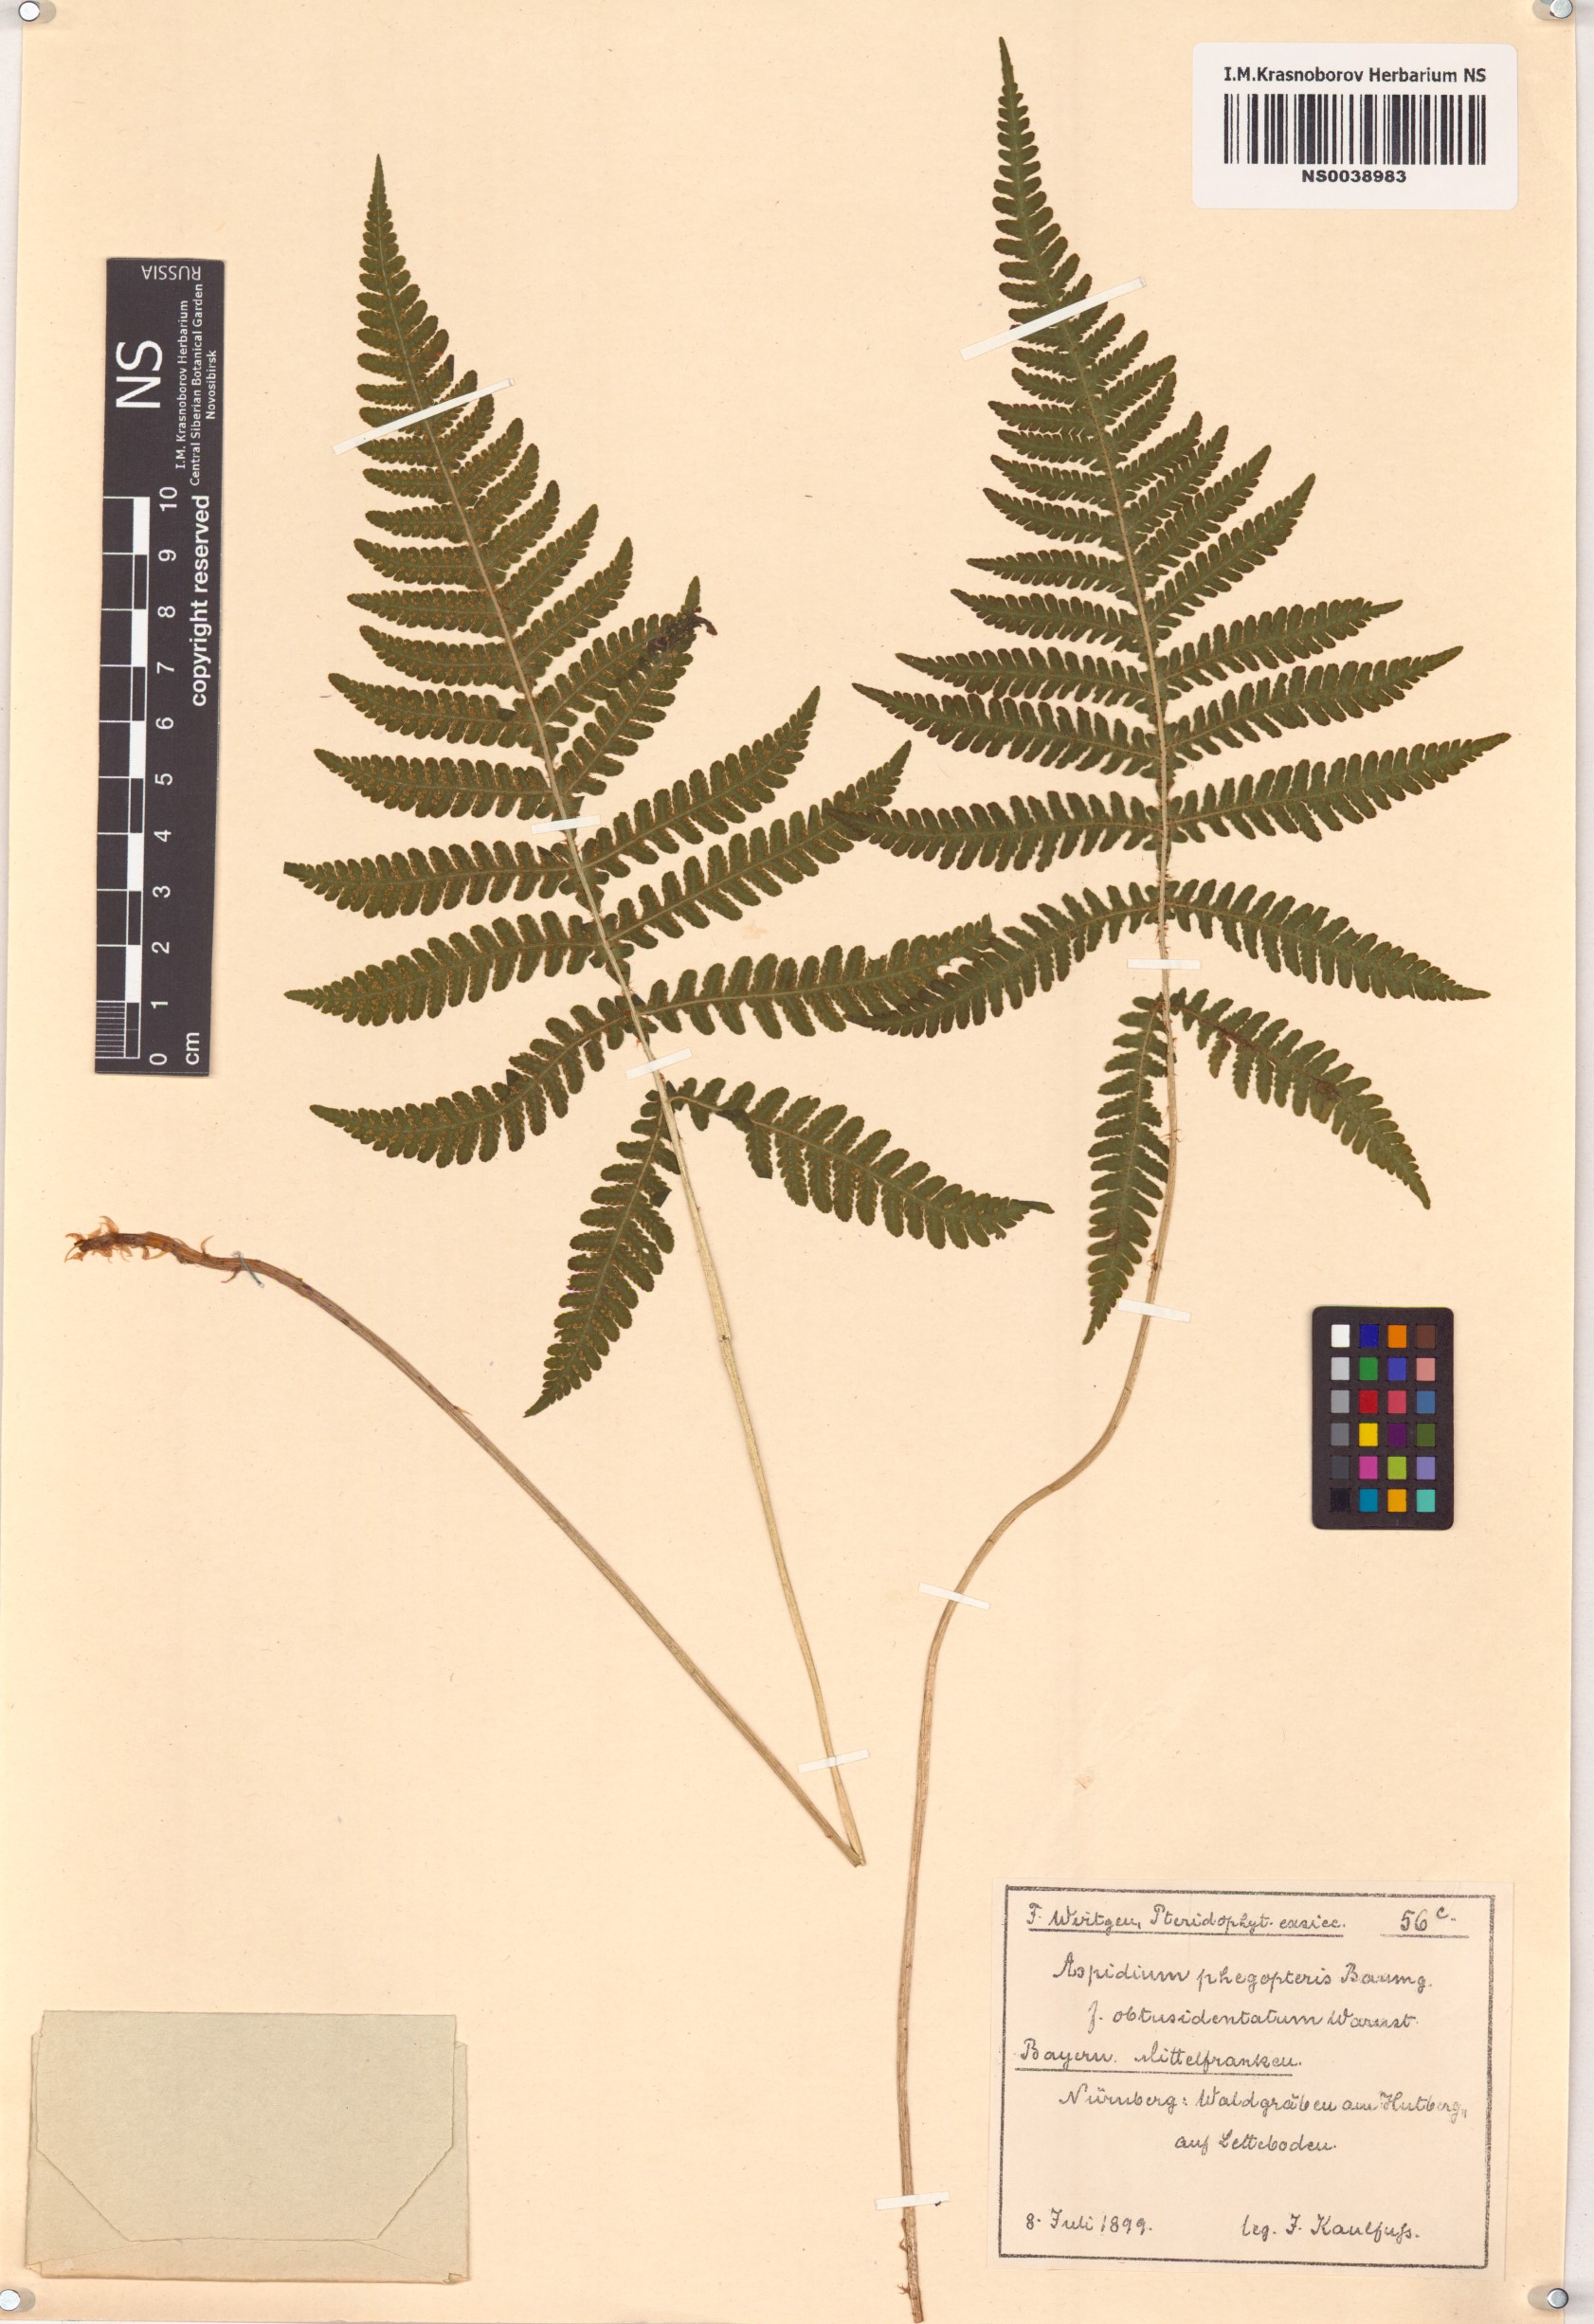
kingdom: Plantae
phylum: Tracheophyta
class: Polypodiopsida
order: Polypodiales
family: Thelypteridaceae
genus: Phegopteris
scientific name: Phegopteris connectilis
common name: Beech fern
